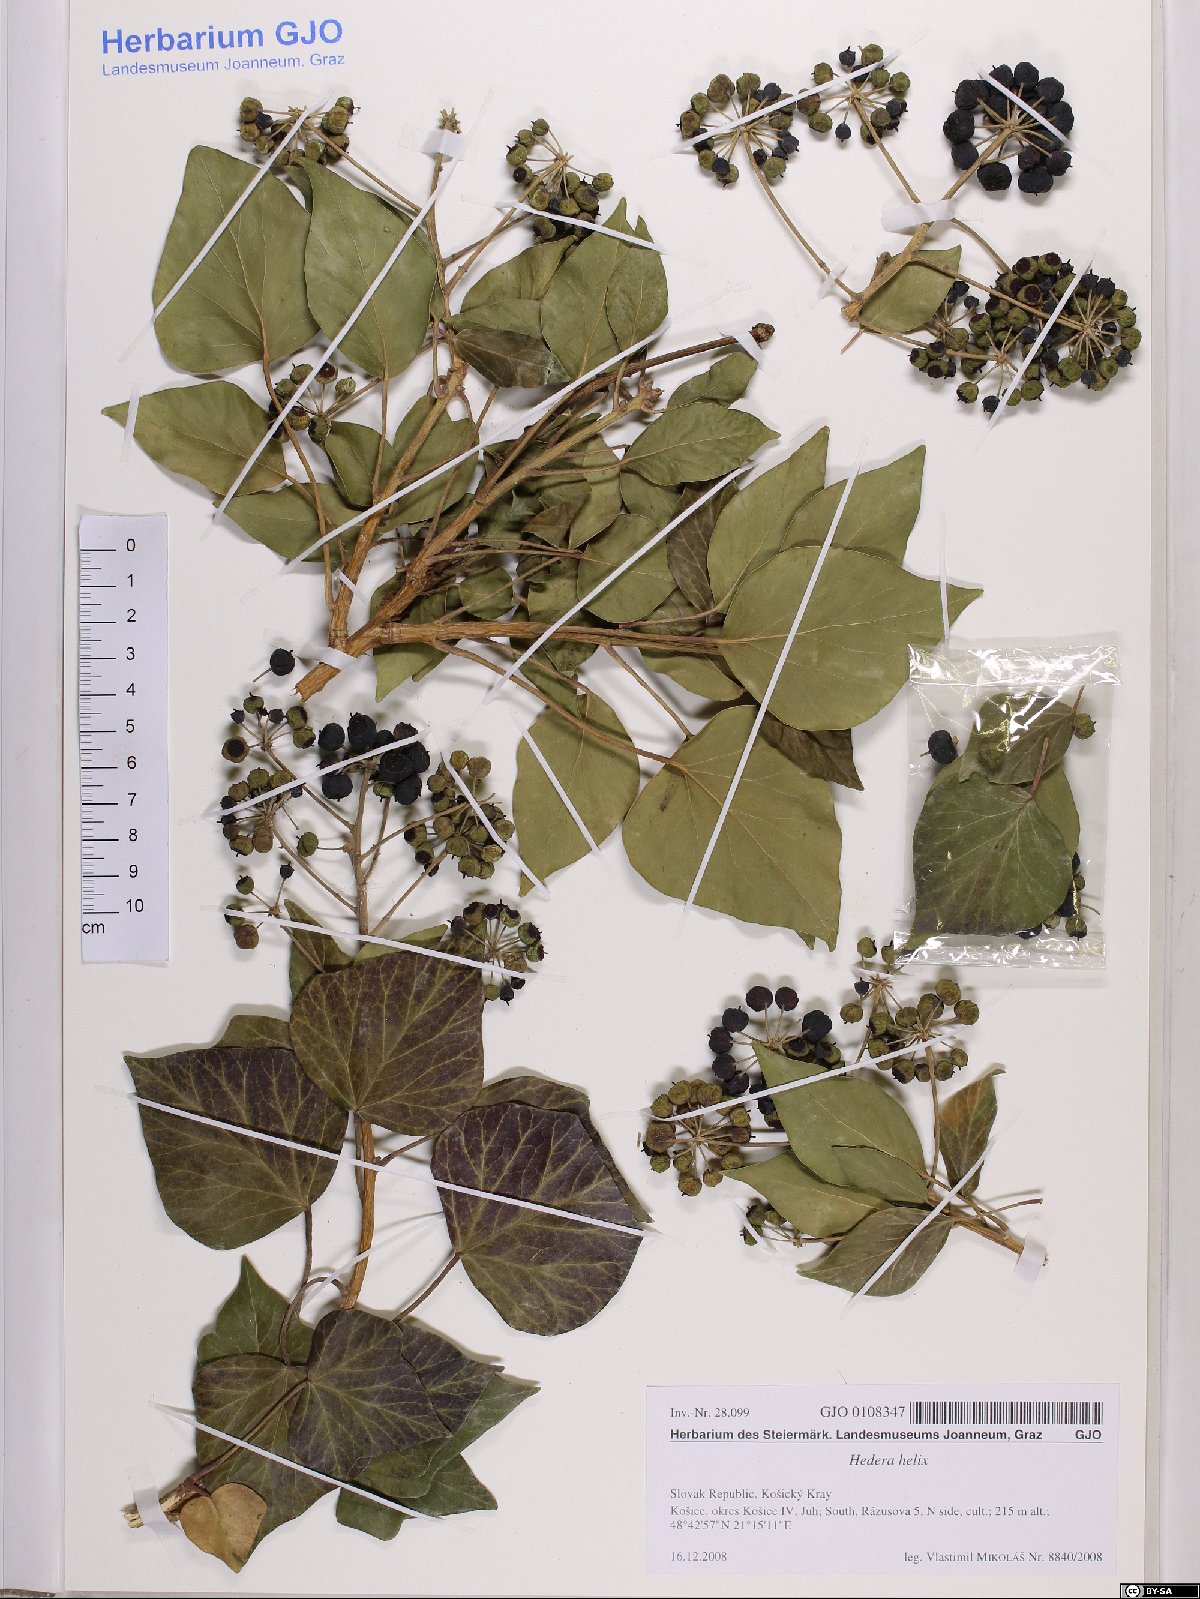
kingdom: Plantae
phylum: Tracheophyta
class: Magnoliopsida
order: Apiales
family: Araliaceae
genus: Hedera
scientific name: Hedera helix
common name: Ivy
